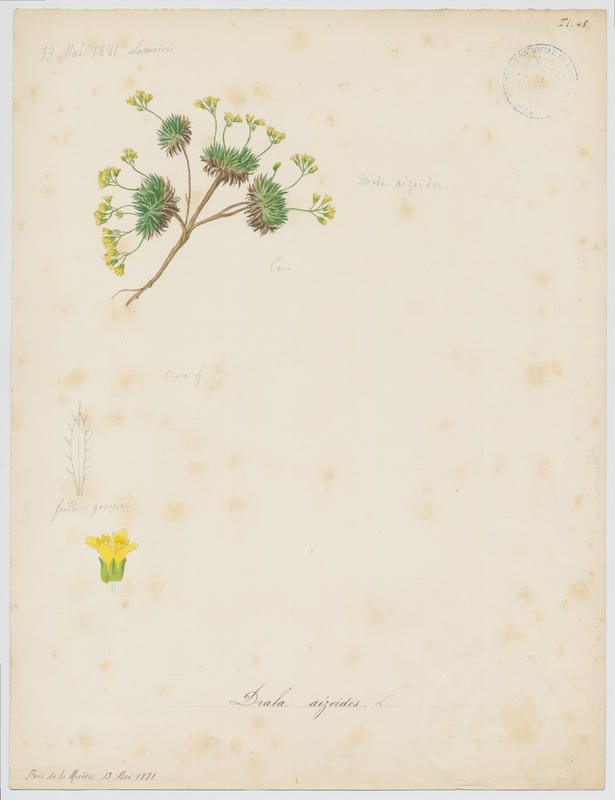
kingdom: Plantae
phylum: Tracheophyta
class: Magnoliopsida
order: Brassicales
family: Brassicaceae
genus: Draba
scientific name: Draba aizoides
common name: Yellow whitlowgrass
